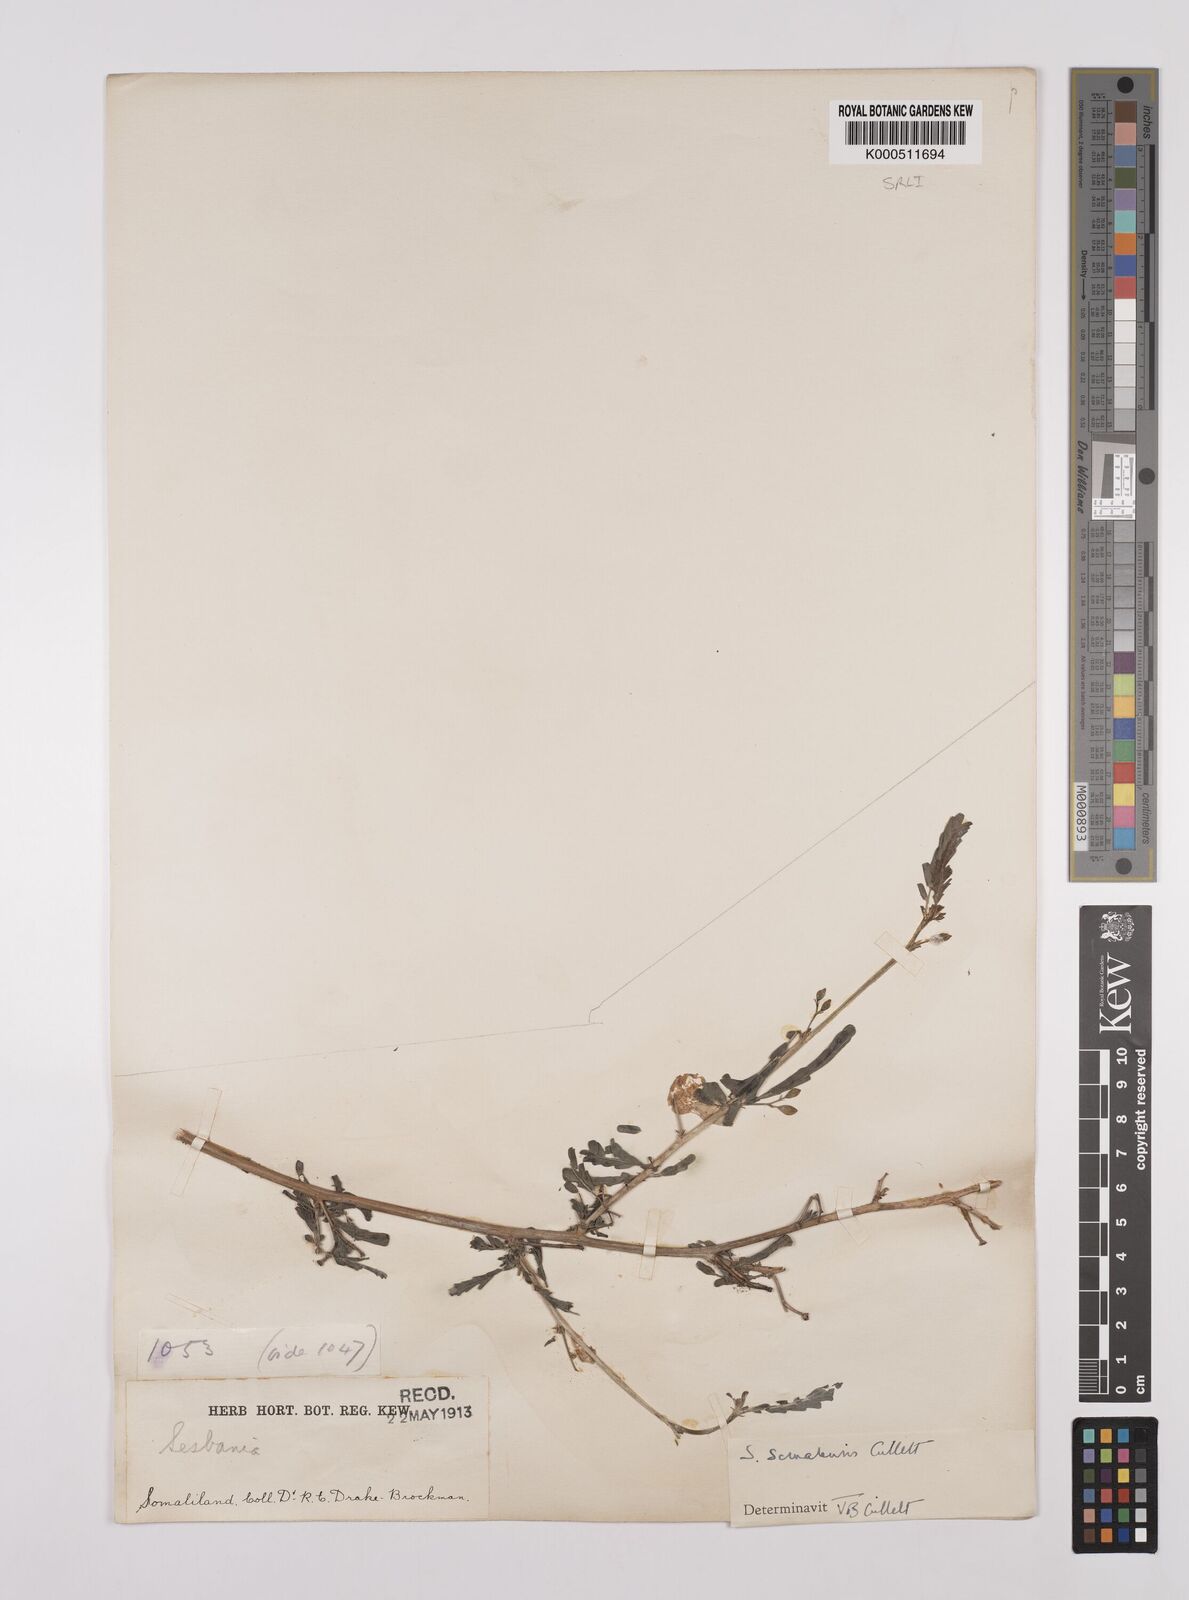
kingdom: Plantae
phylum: Tracheophyta
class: Magnoliopsida
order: Fabales
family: Fabaceae
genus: Sesbania
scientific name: Sesbania somalensis
